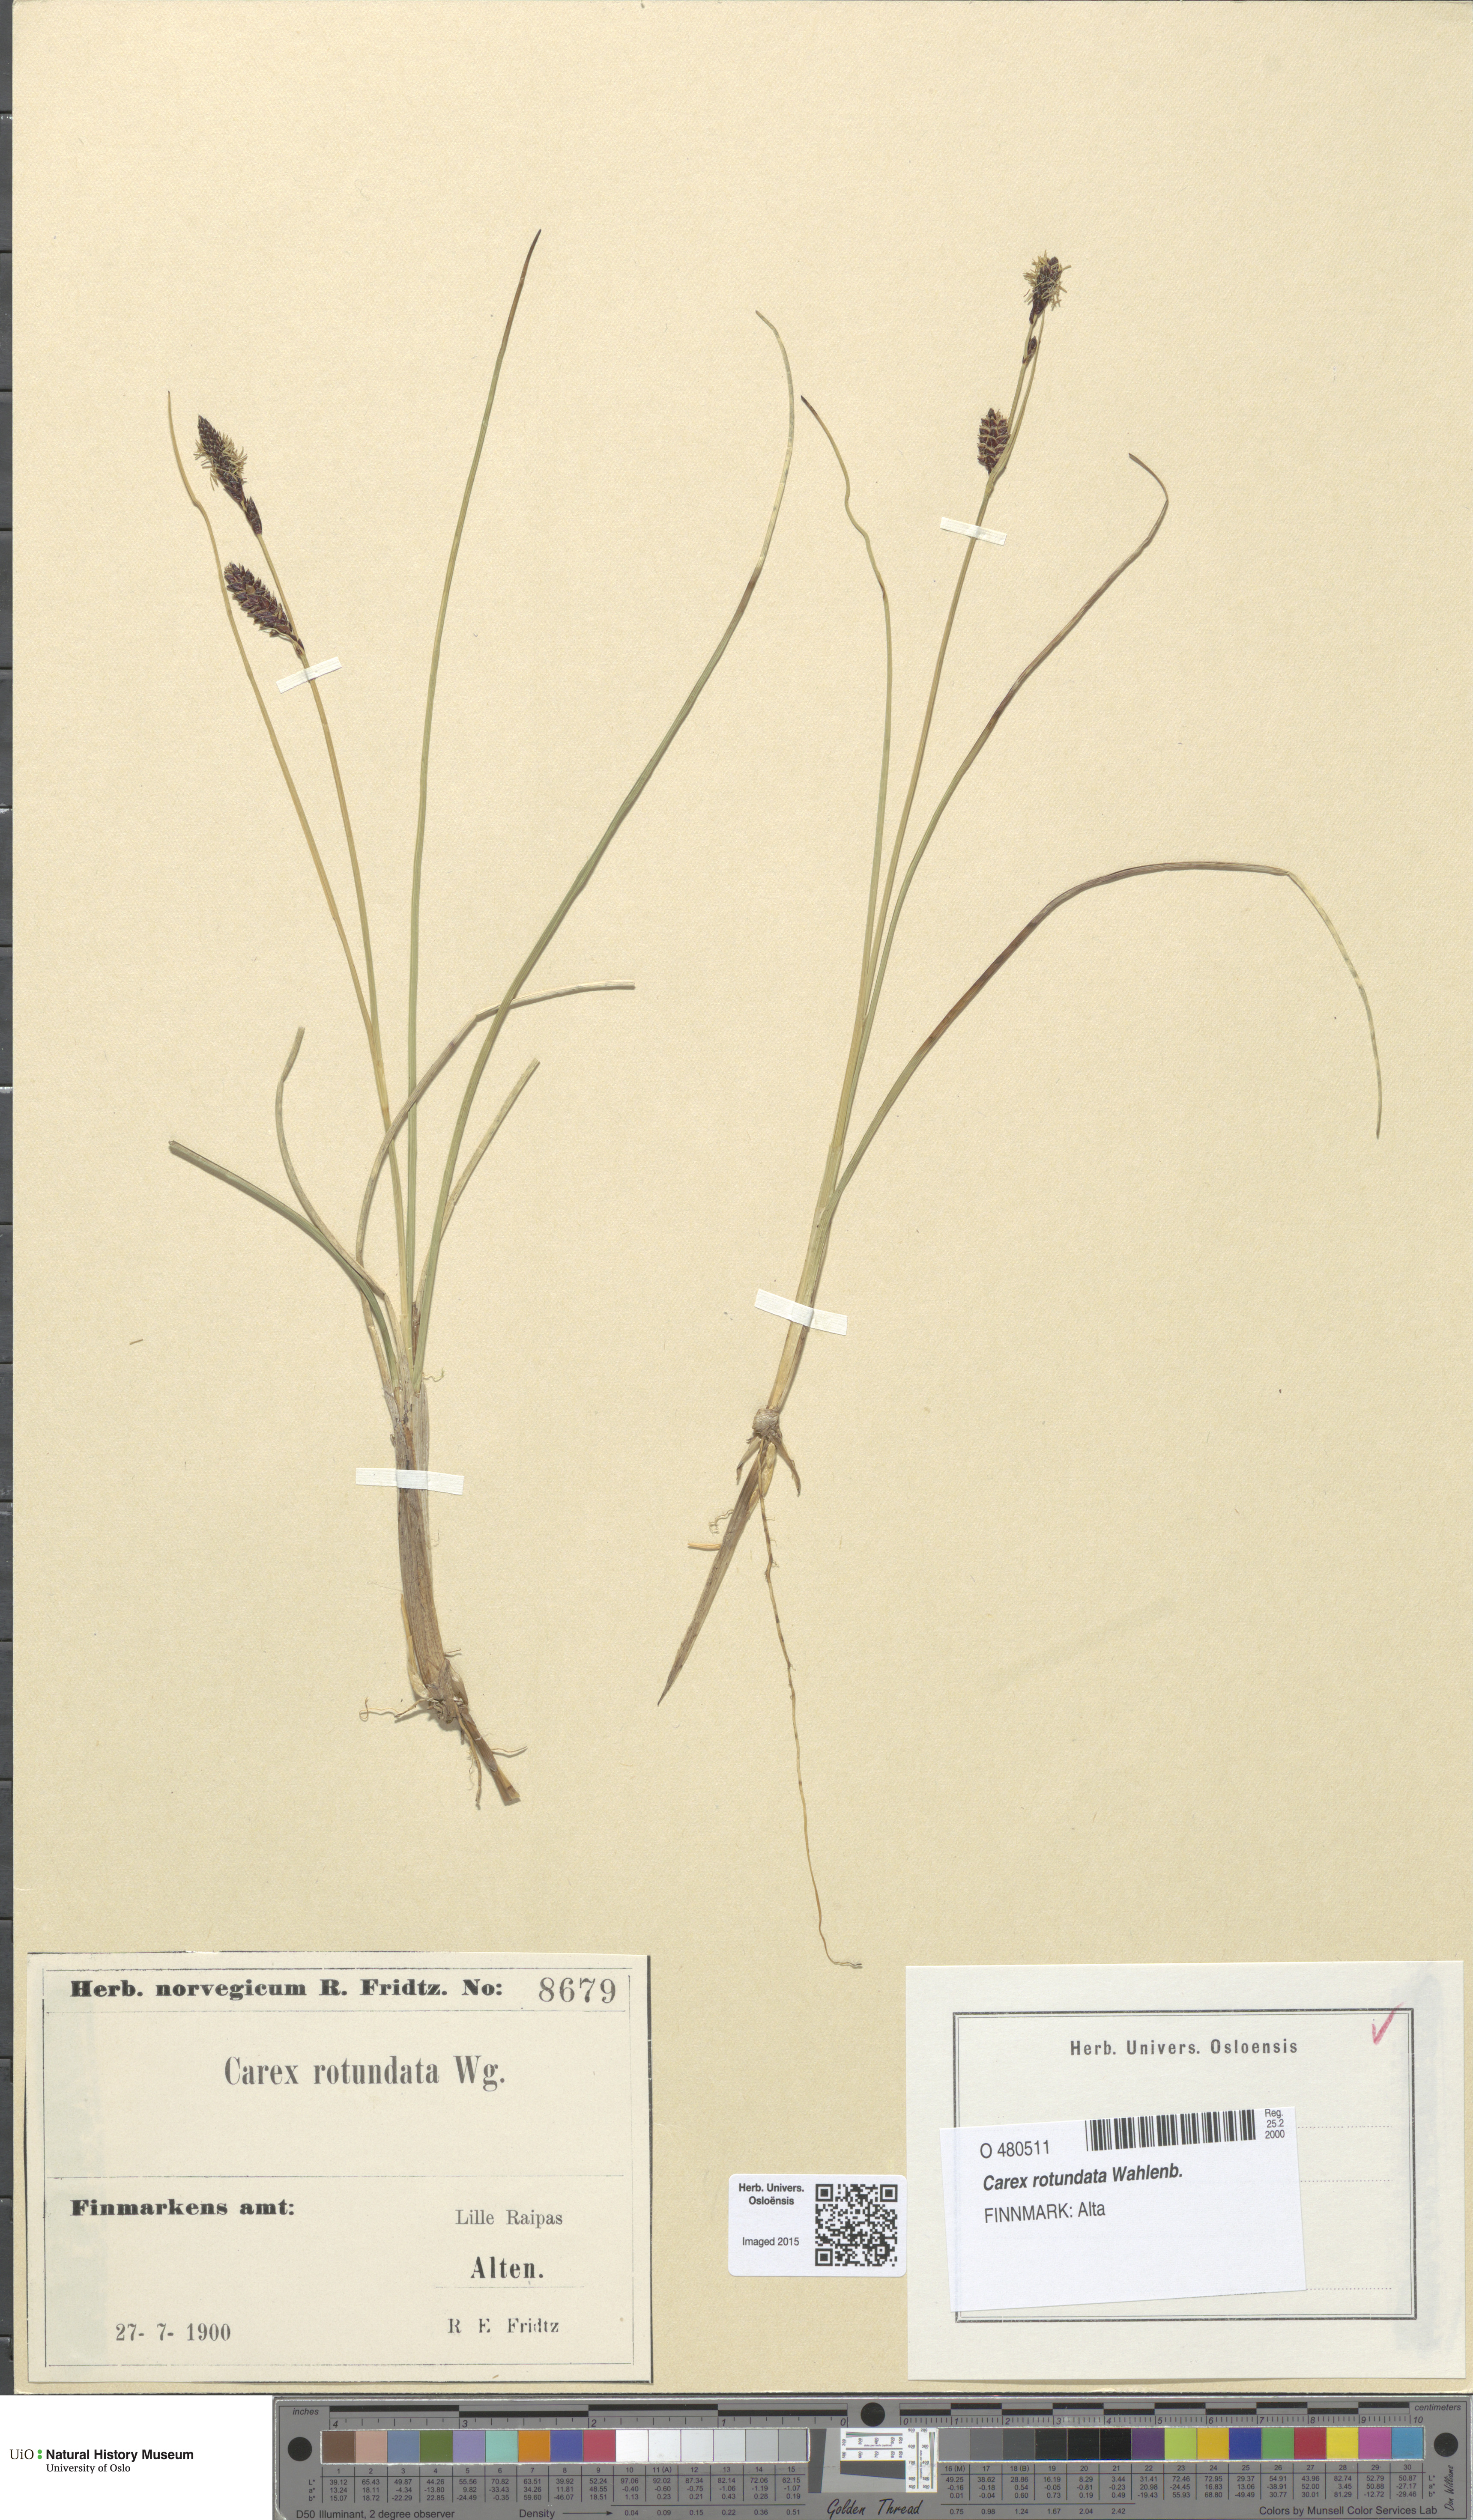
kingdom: Plantae
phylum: Tracheophyta
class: Liliopsida
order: Poales
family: Cyperaceae
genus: Carex
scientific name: Carex rotundata
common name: Round-fruited sedge
